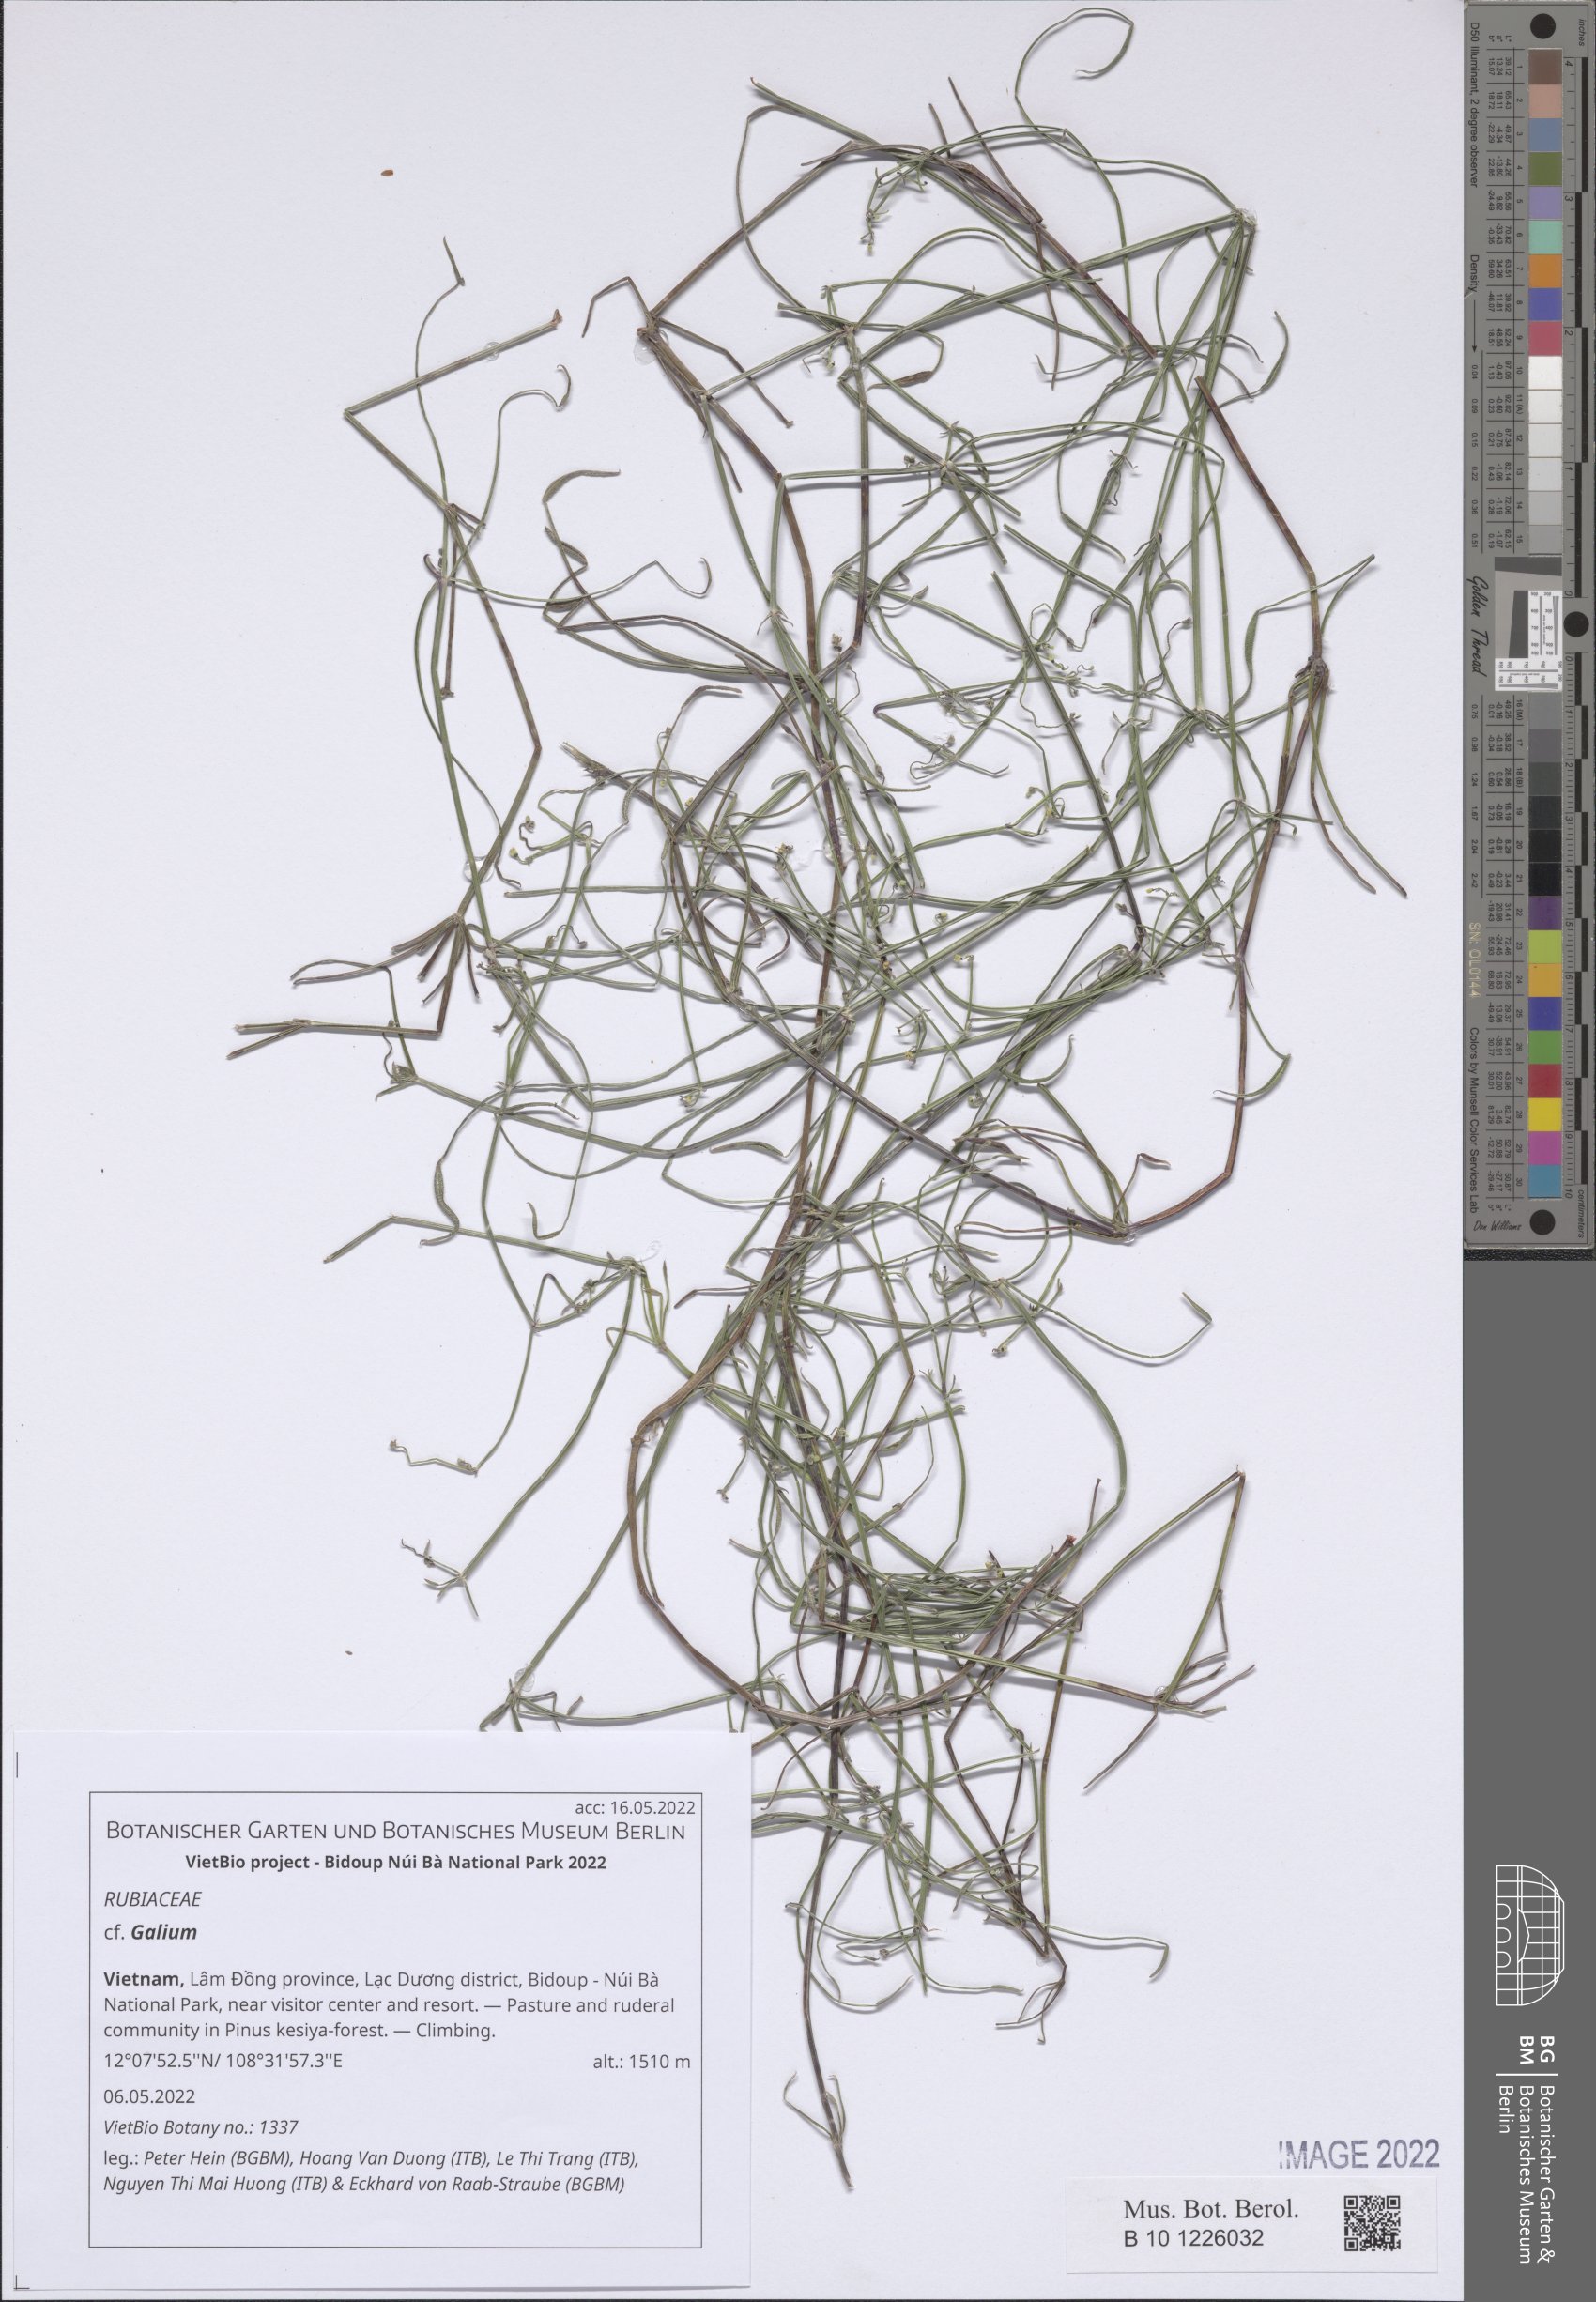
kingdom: Plantae
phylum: Tracheophyta
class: Magnoliopsida
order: Gentianales
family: Rubiaceae
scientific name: Rubiaceae
